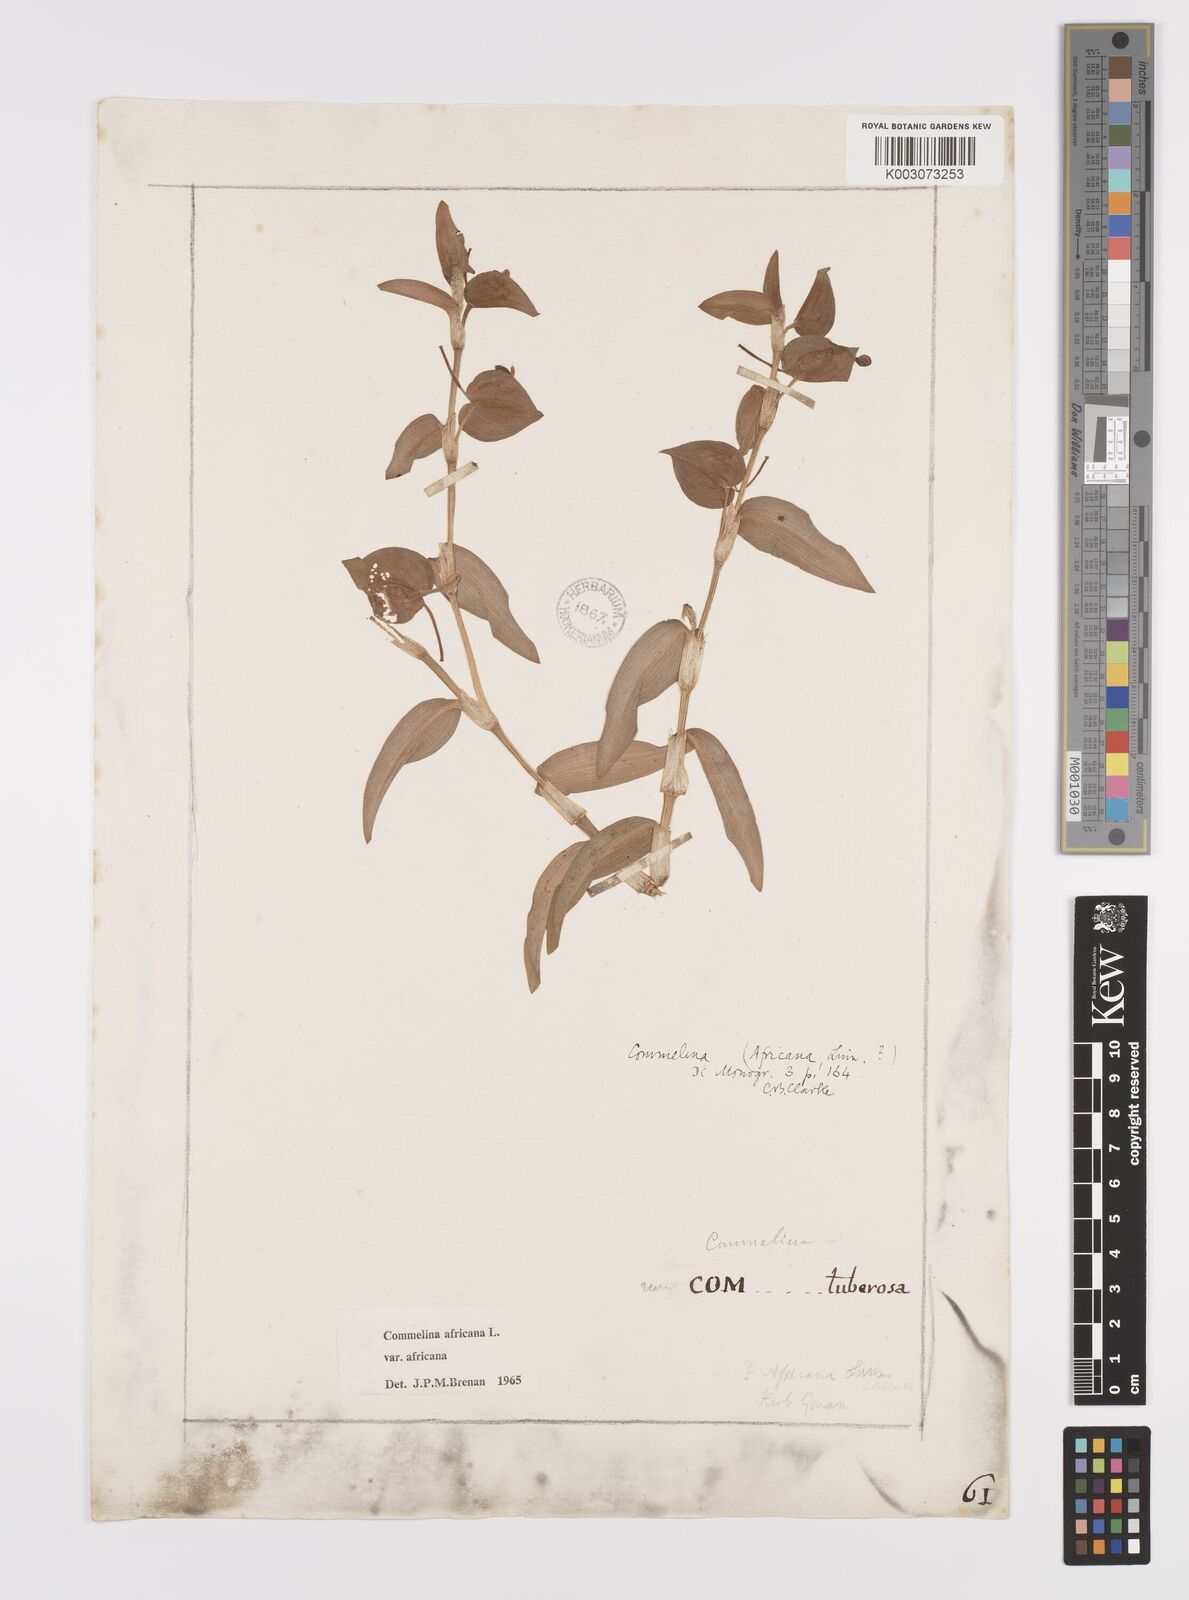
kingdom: Plantae
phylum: Tracheophyta
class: Liliopsida
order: Commelinales
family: Commelinaceae
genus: Commelina
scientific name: Commelina africana
